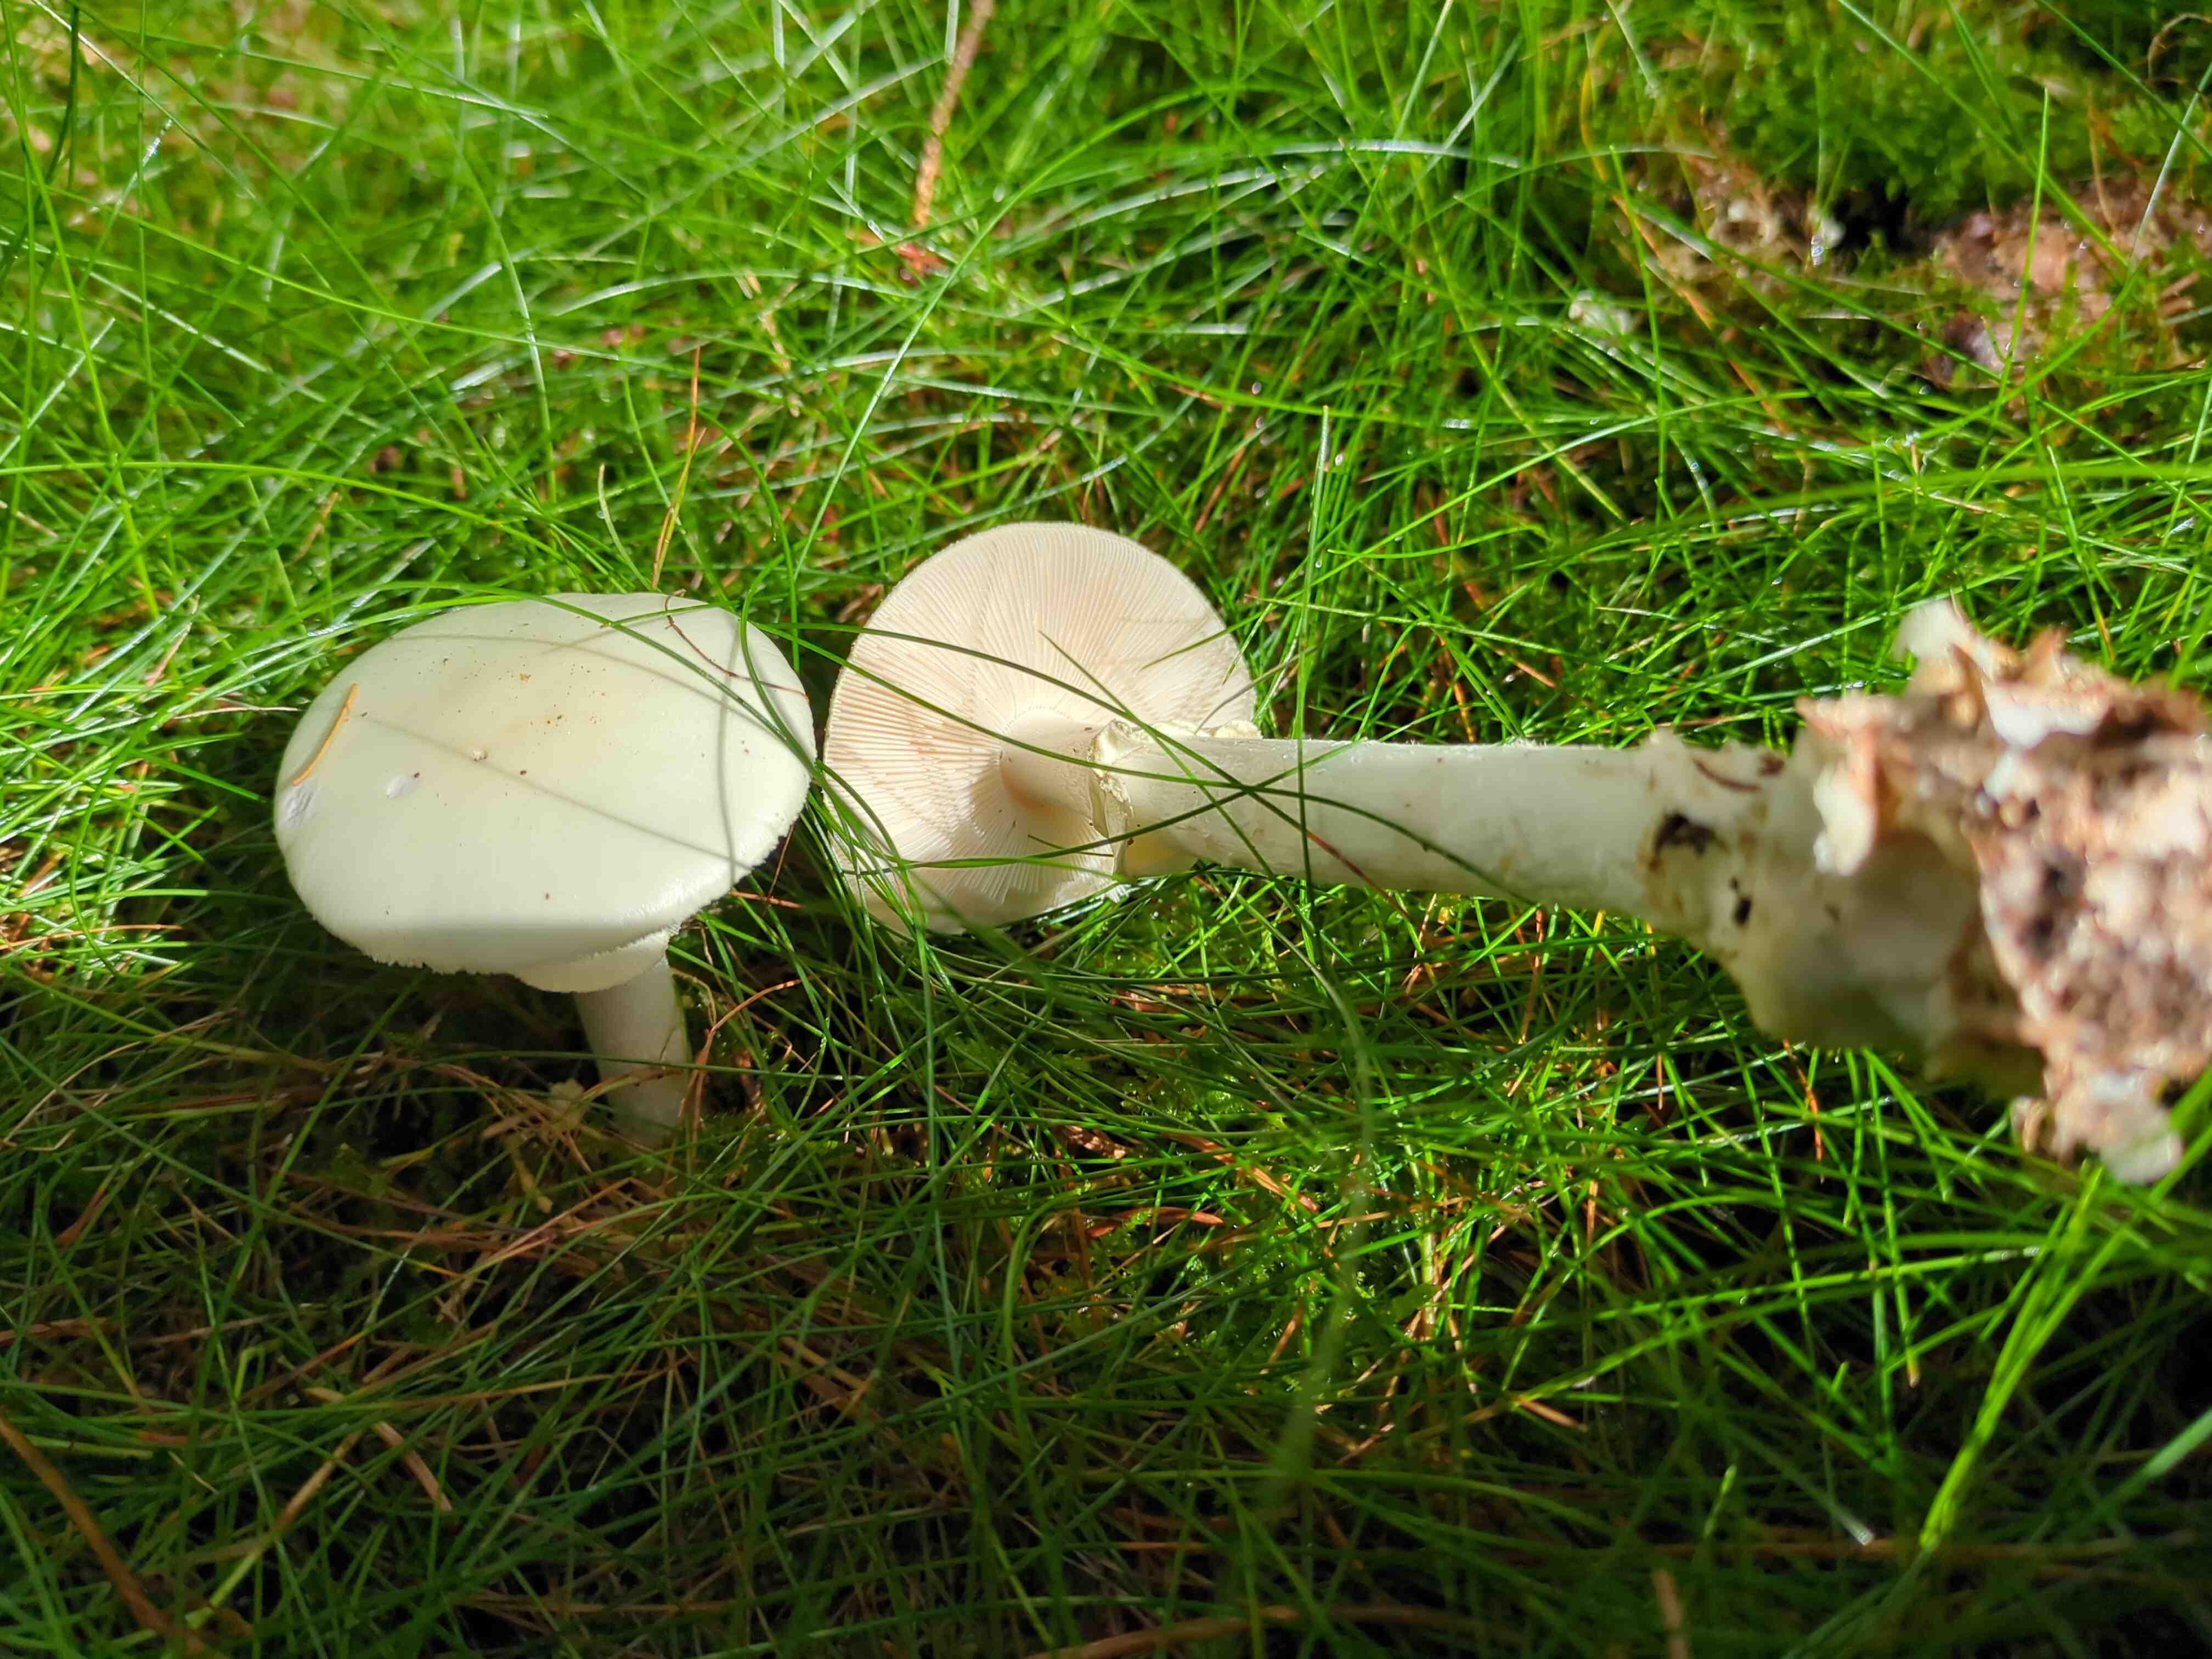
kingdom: Fungi
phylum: Basidiomycota
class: Agaricomycetes
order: Agaricales
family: Amanitaceae
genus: Amanita
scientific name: Amanita citrina
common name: kugleknoldet fluesvamp
